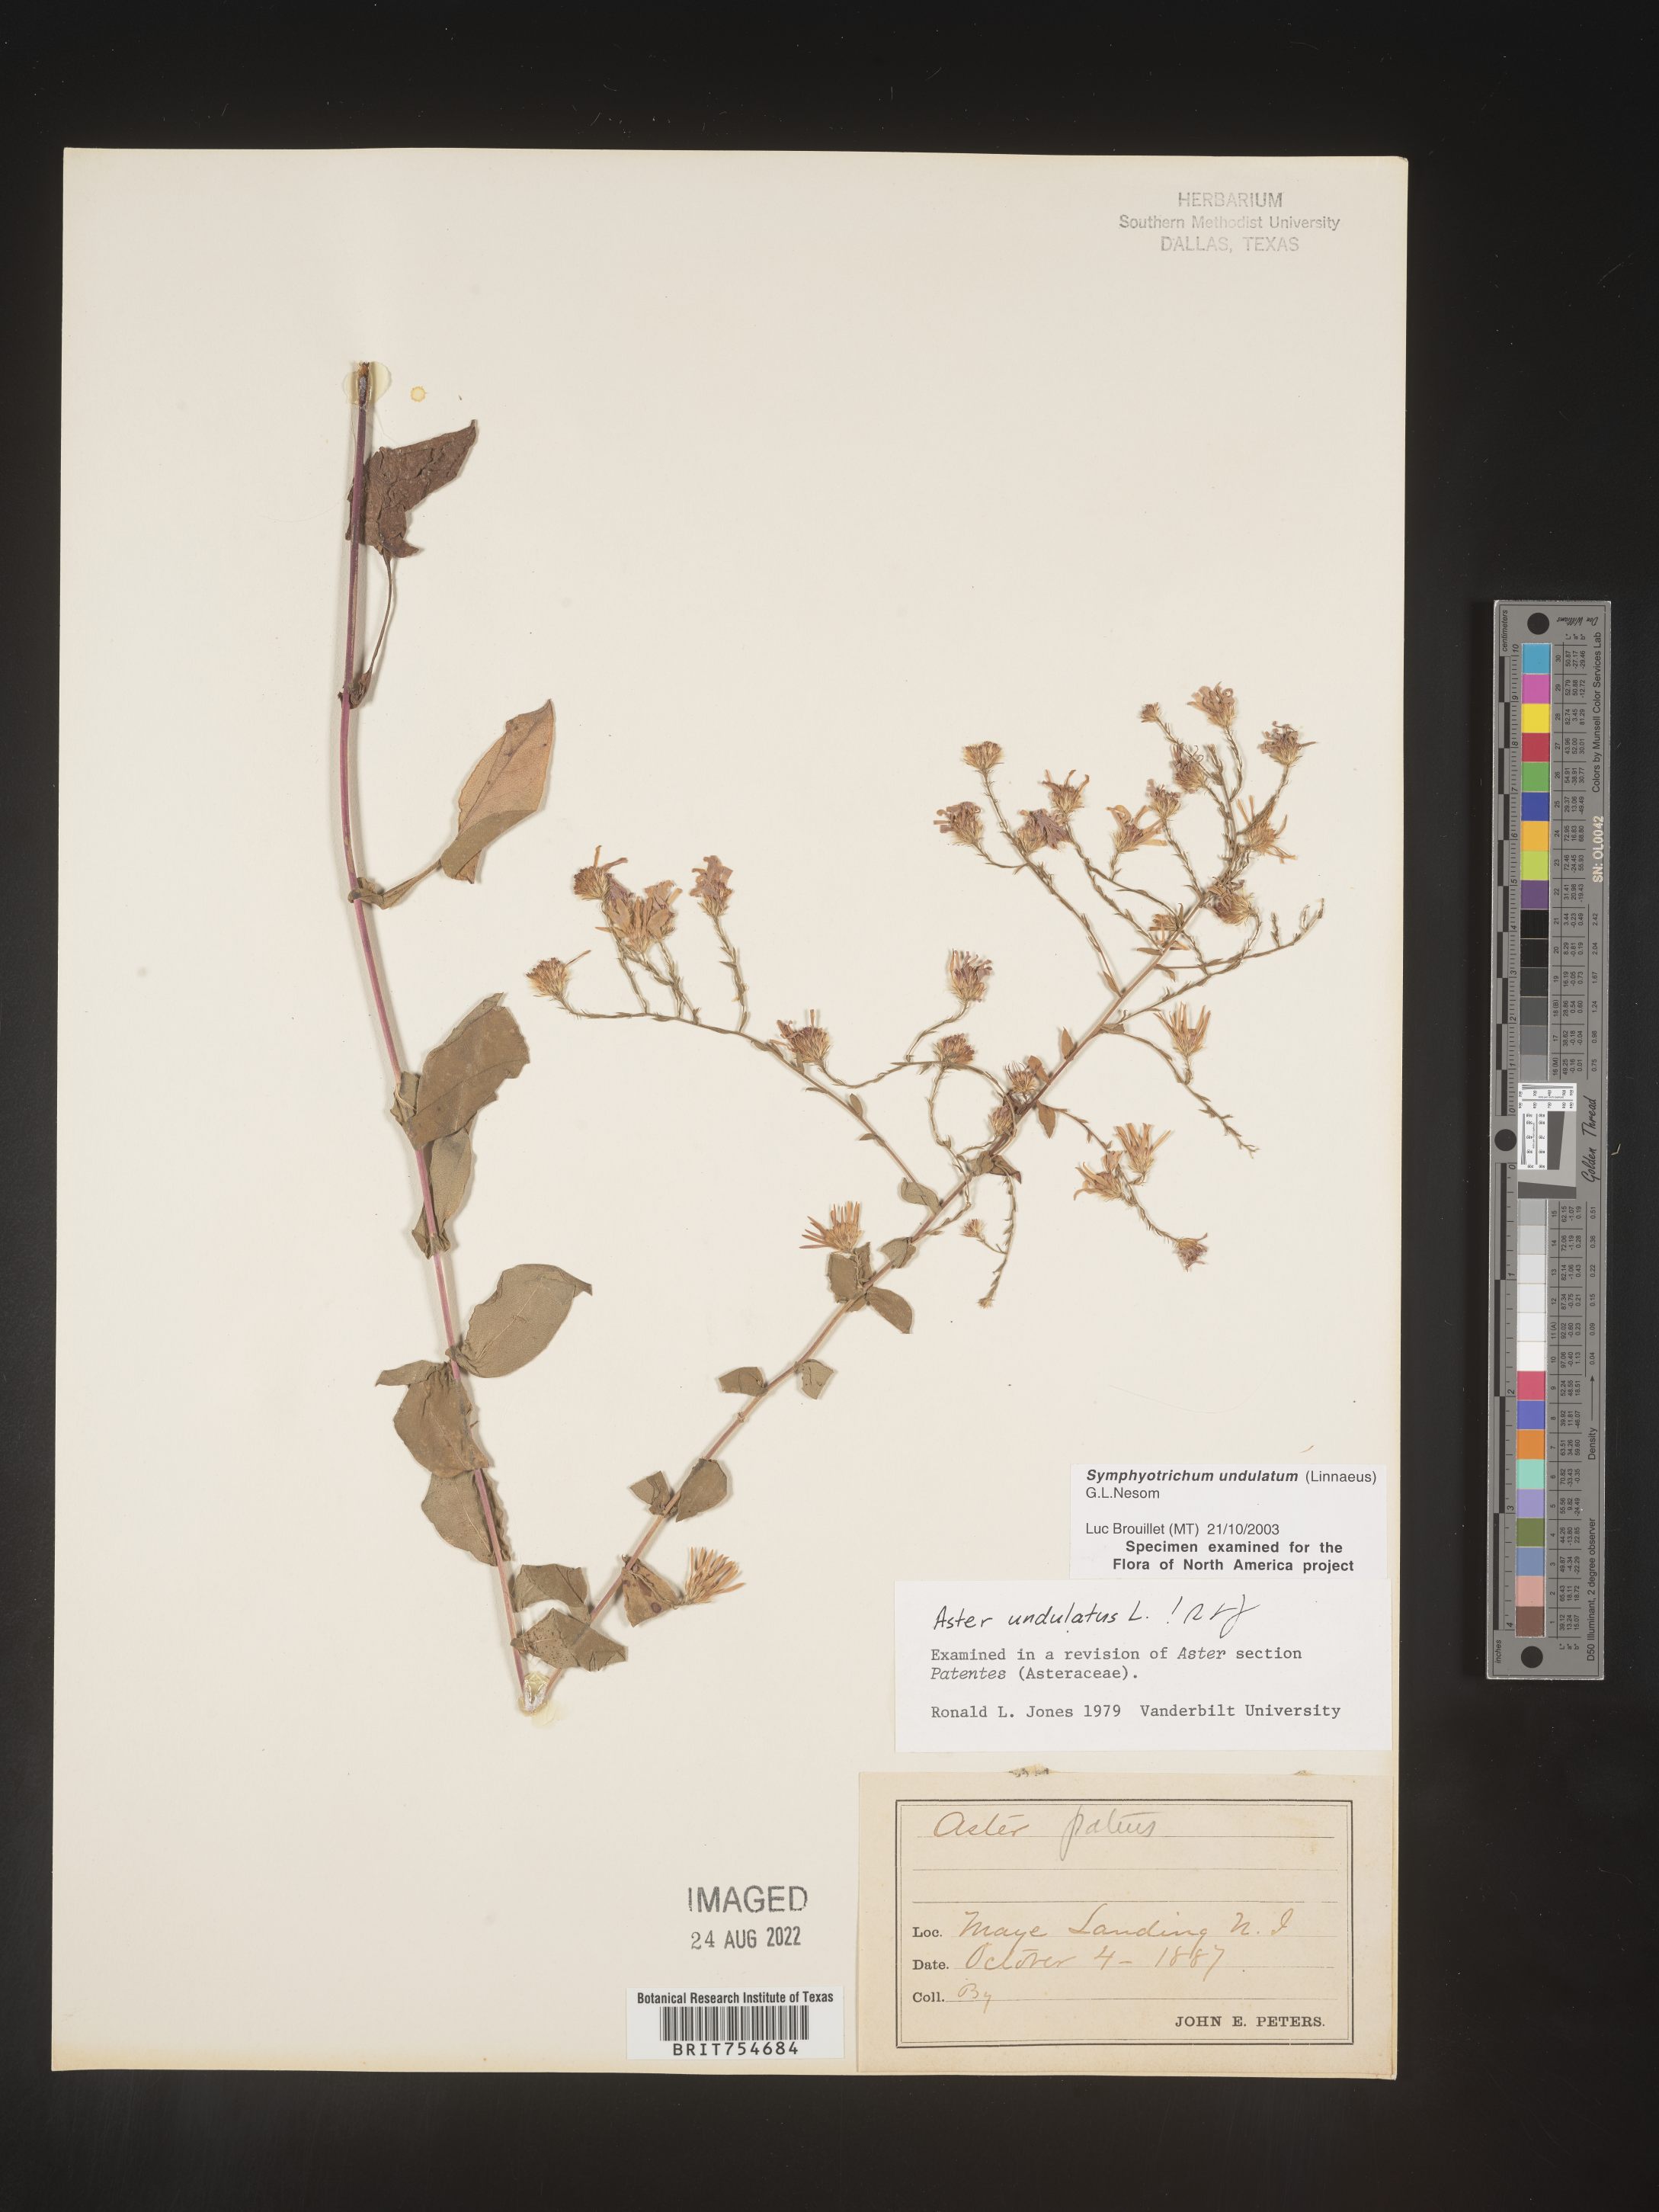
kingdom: Plantae
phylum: Tracheophyta
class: Magnoliopsida
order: Asterales
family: Asteraceae
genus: Symphyotrichum
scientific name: Symphyotrichum undulatum
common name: Clasping heart-leaf aster
